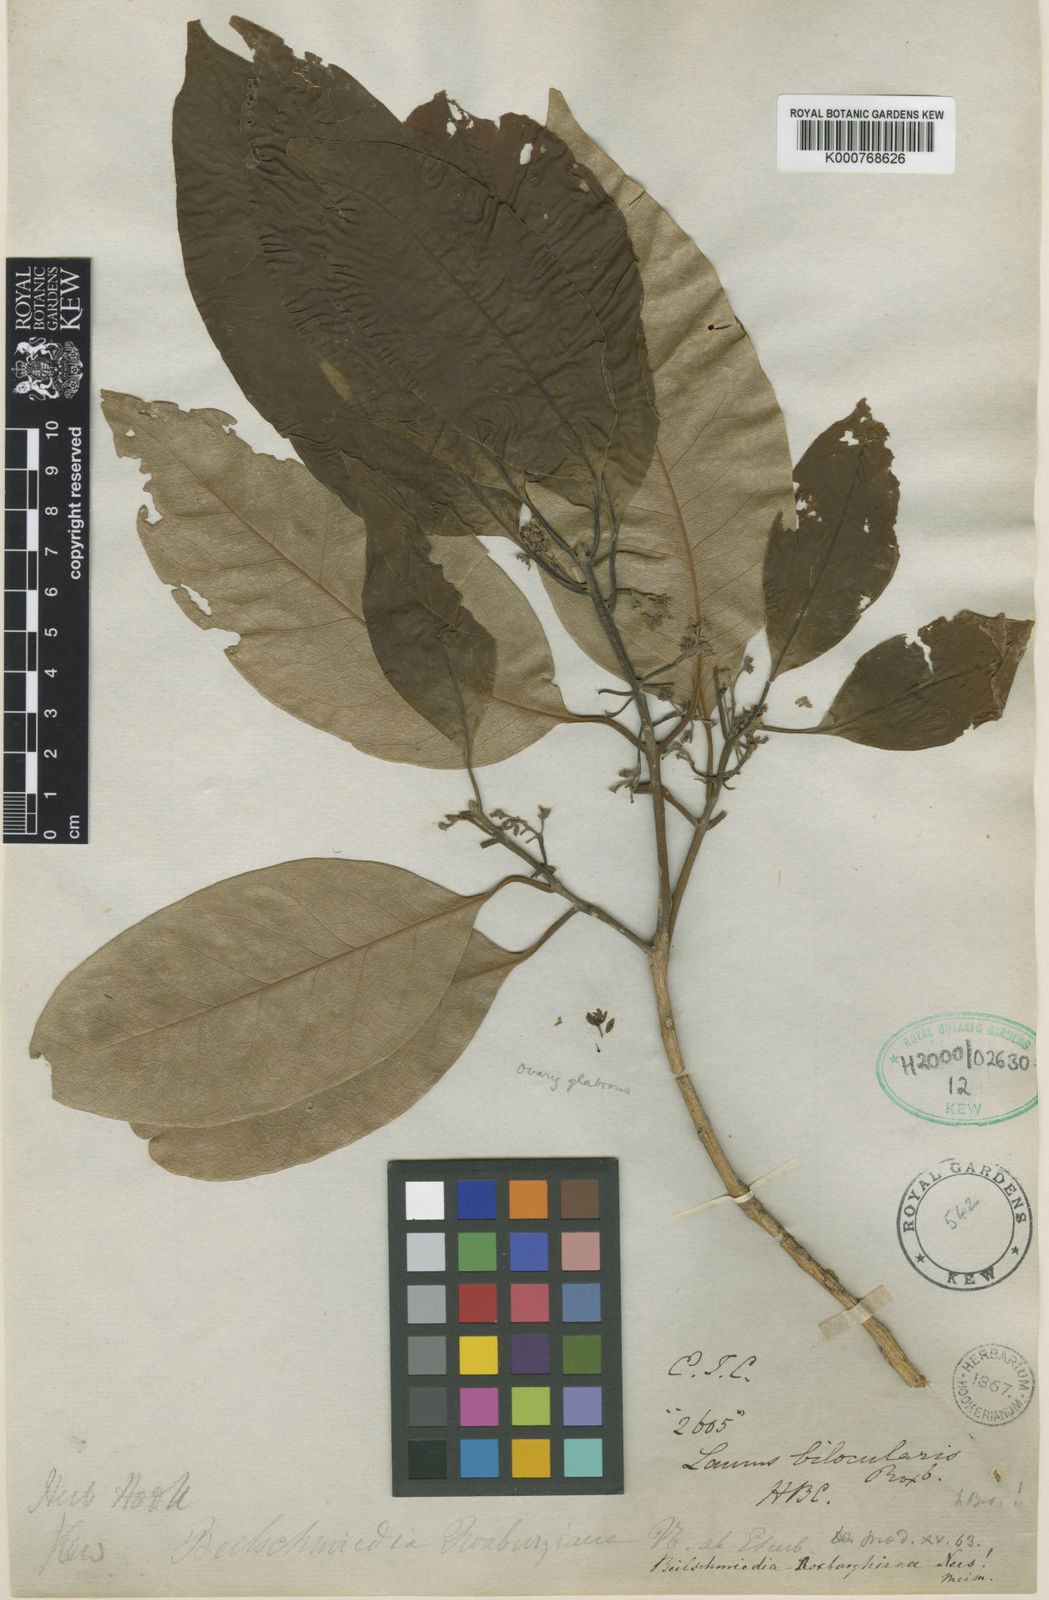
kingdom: Plantae
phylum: Tracheophyta
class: Magnoliopsida
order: Laurales
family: Lauraceae
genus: Beilschmiedia
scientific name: Beilschmiedia roxburghiana
